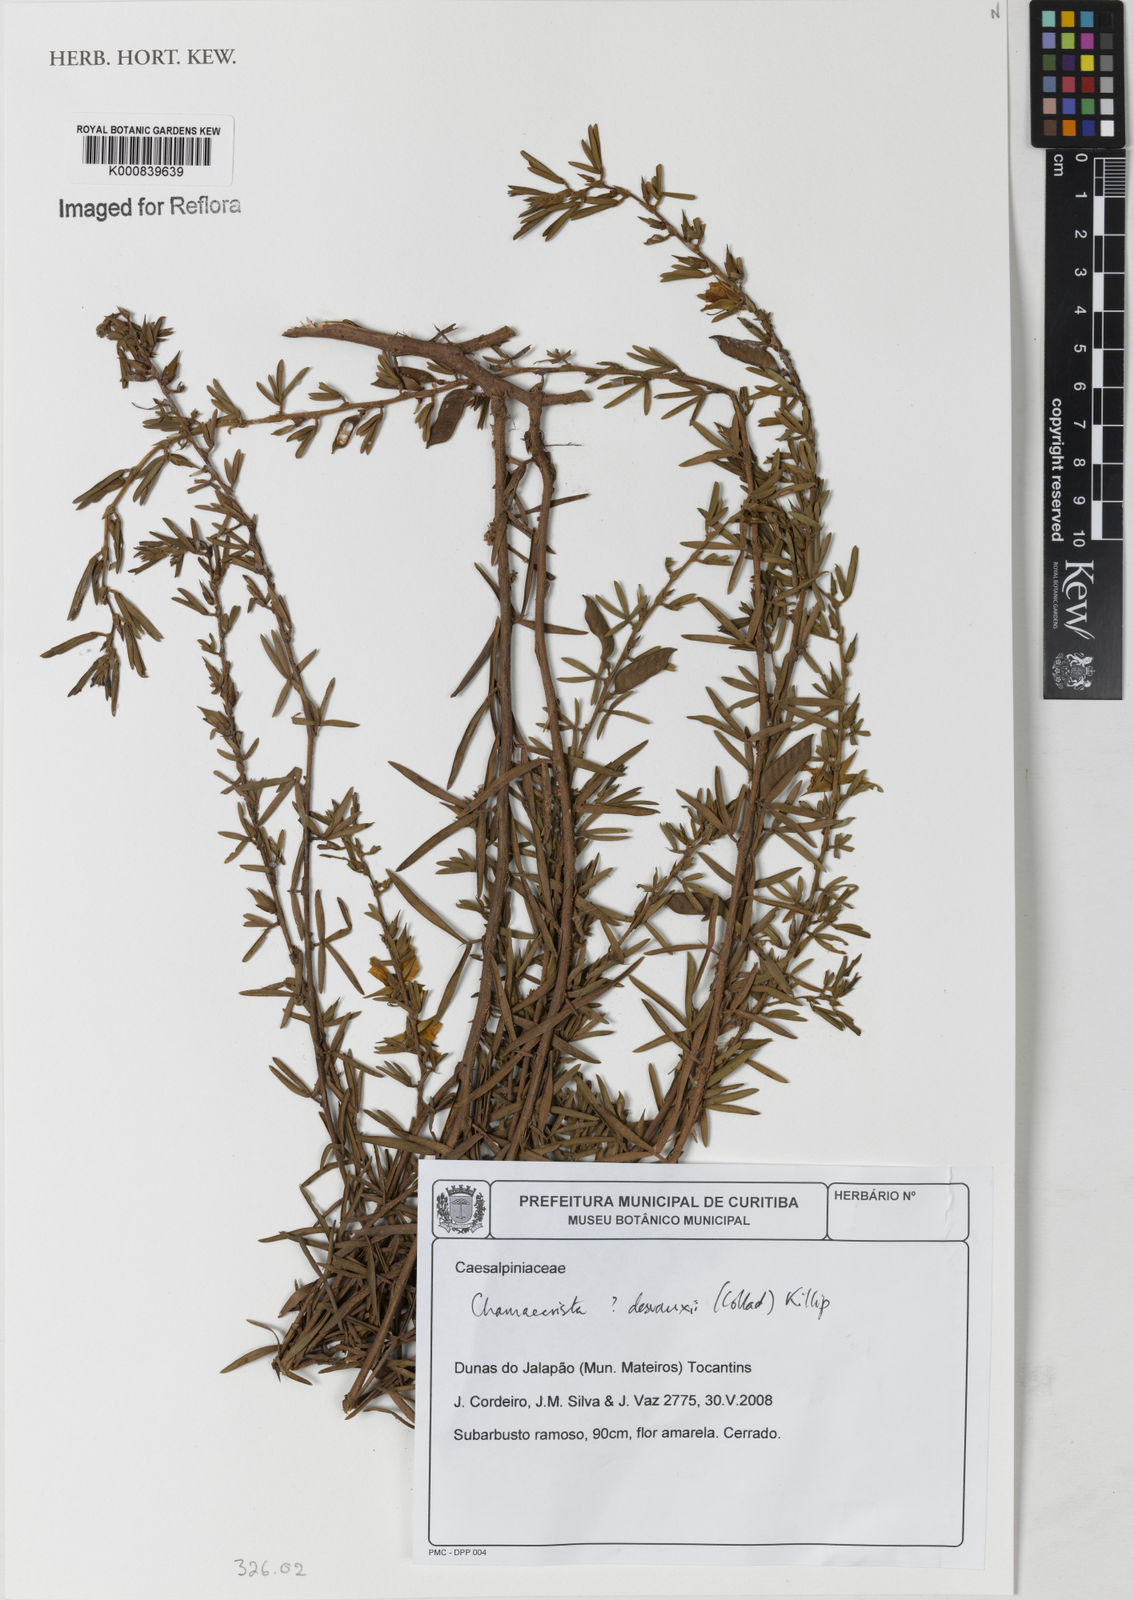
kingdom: Plantae
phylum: Tracheophyta
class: Magnoliopsida
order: Fabales
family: Fabaceae
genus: Chamaecrista
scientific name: Chamaecrista desvauxii
